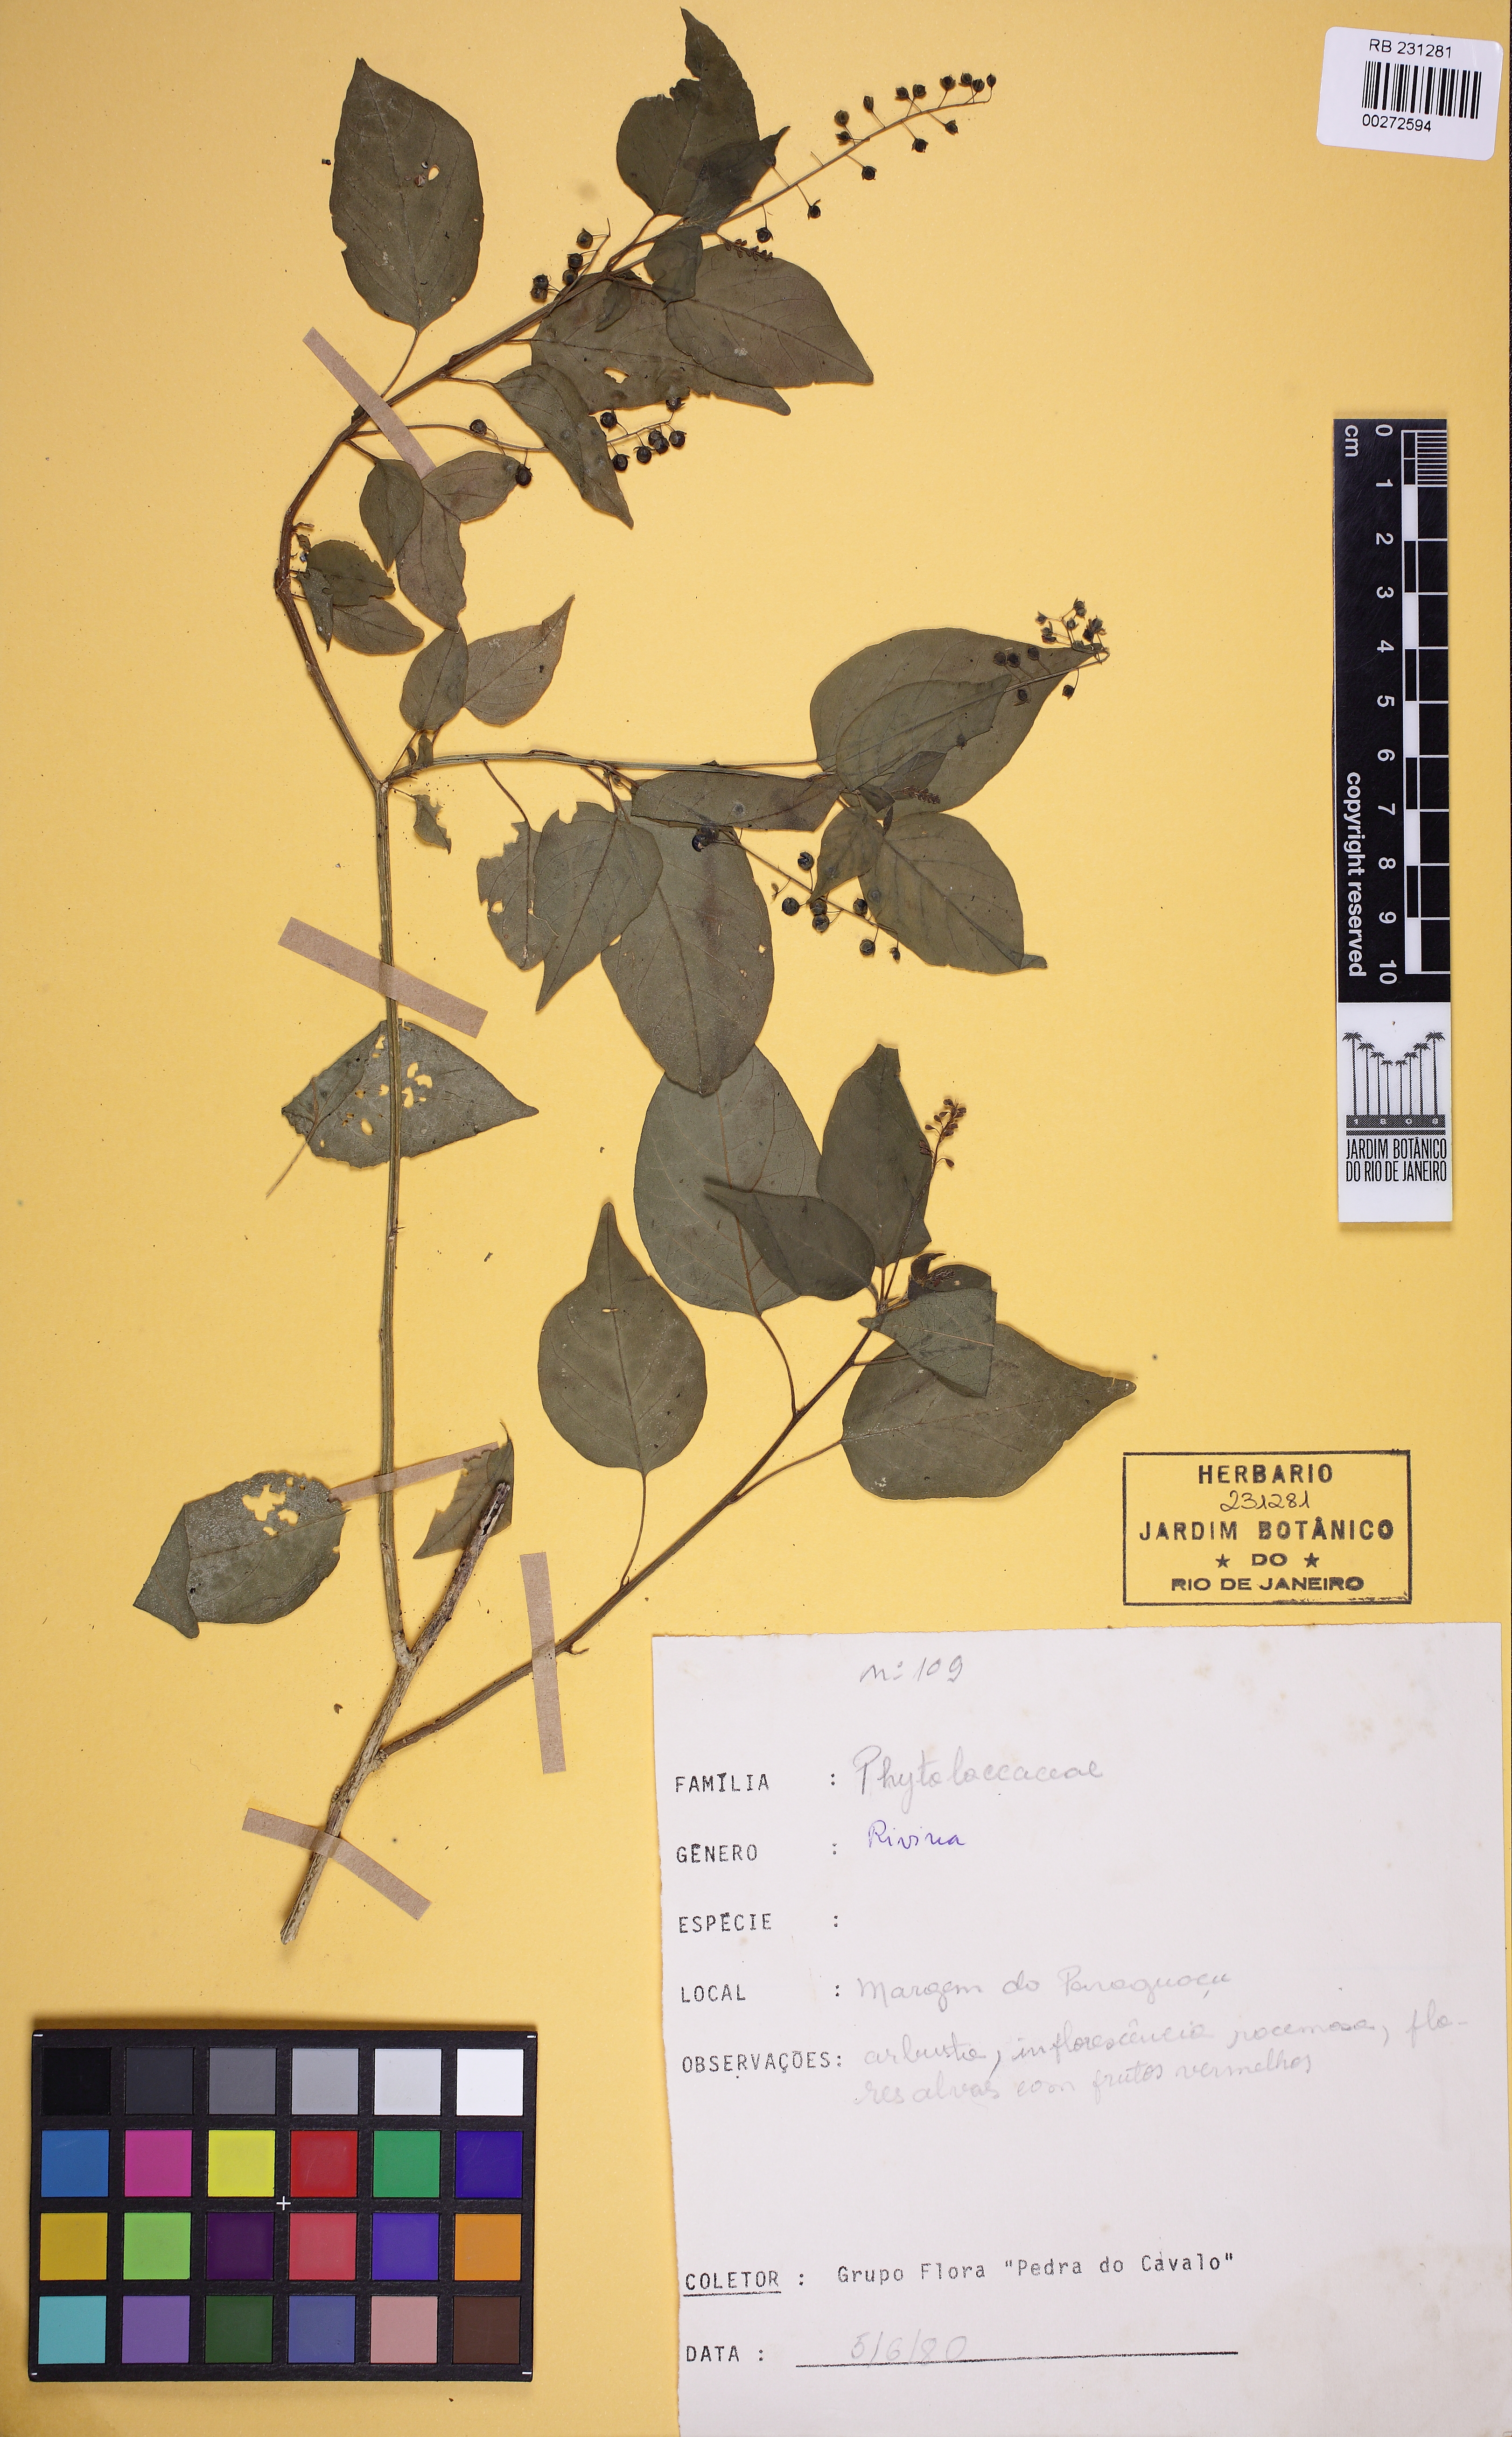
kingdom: Plantae
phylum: Tracheophyta
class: Magnoliopsida
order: Caryophyllales
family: Phytolaccaceae
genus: Rivina
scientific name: Rivina
